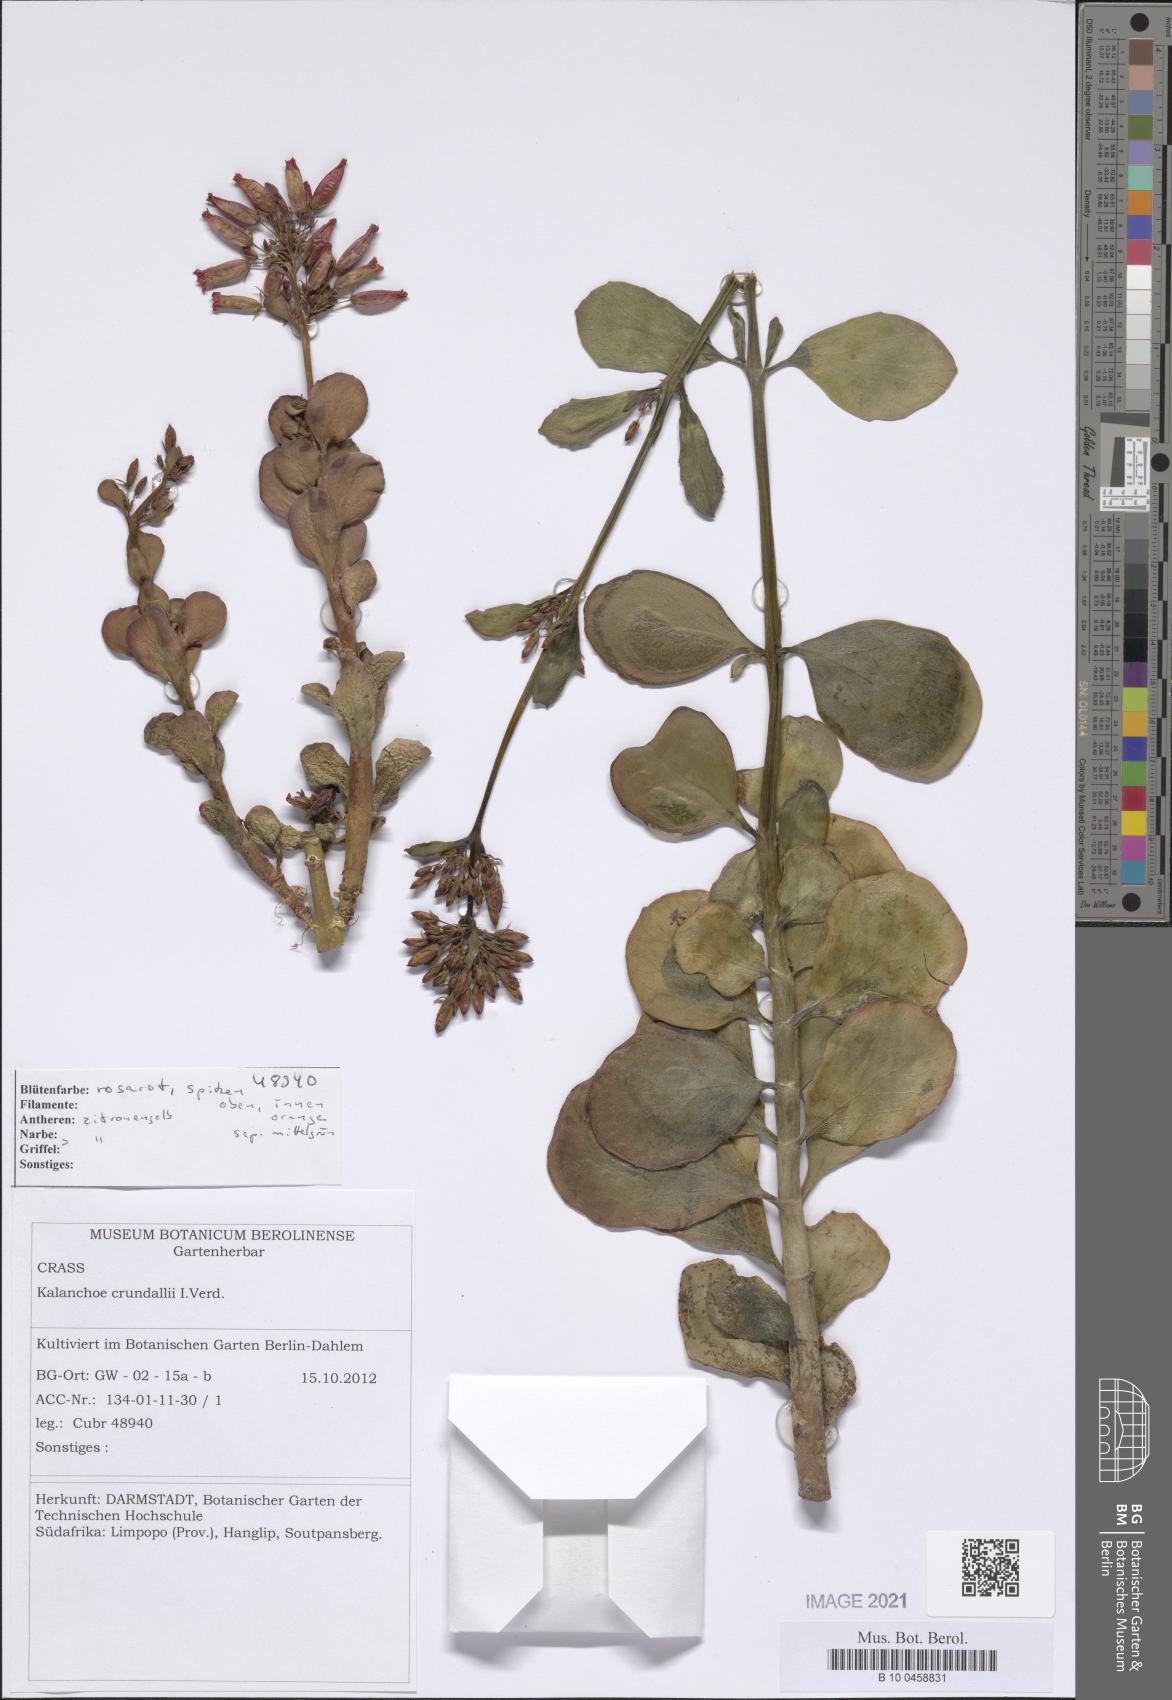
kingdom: Plantae
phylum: Tracheophyta
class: Magnoliopsida
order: Saxifragales
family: Crassulaceae
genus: Kalanchoe
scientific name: Kalanchoe crundallii
